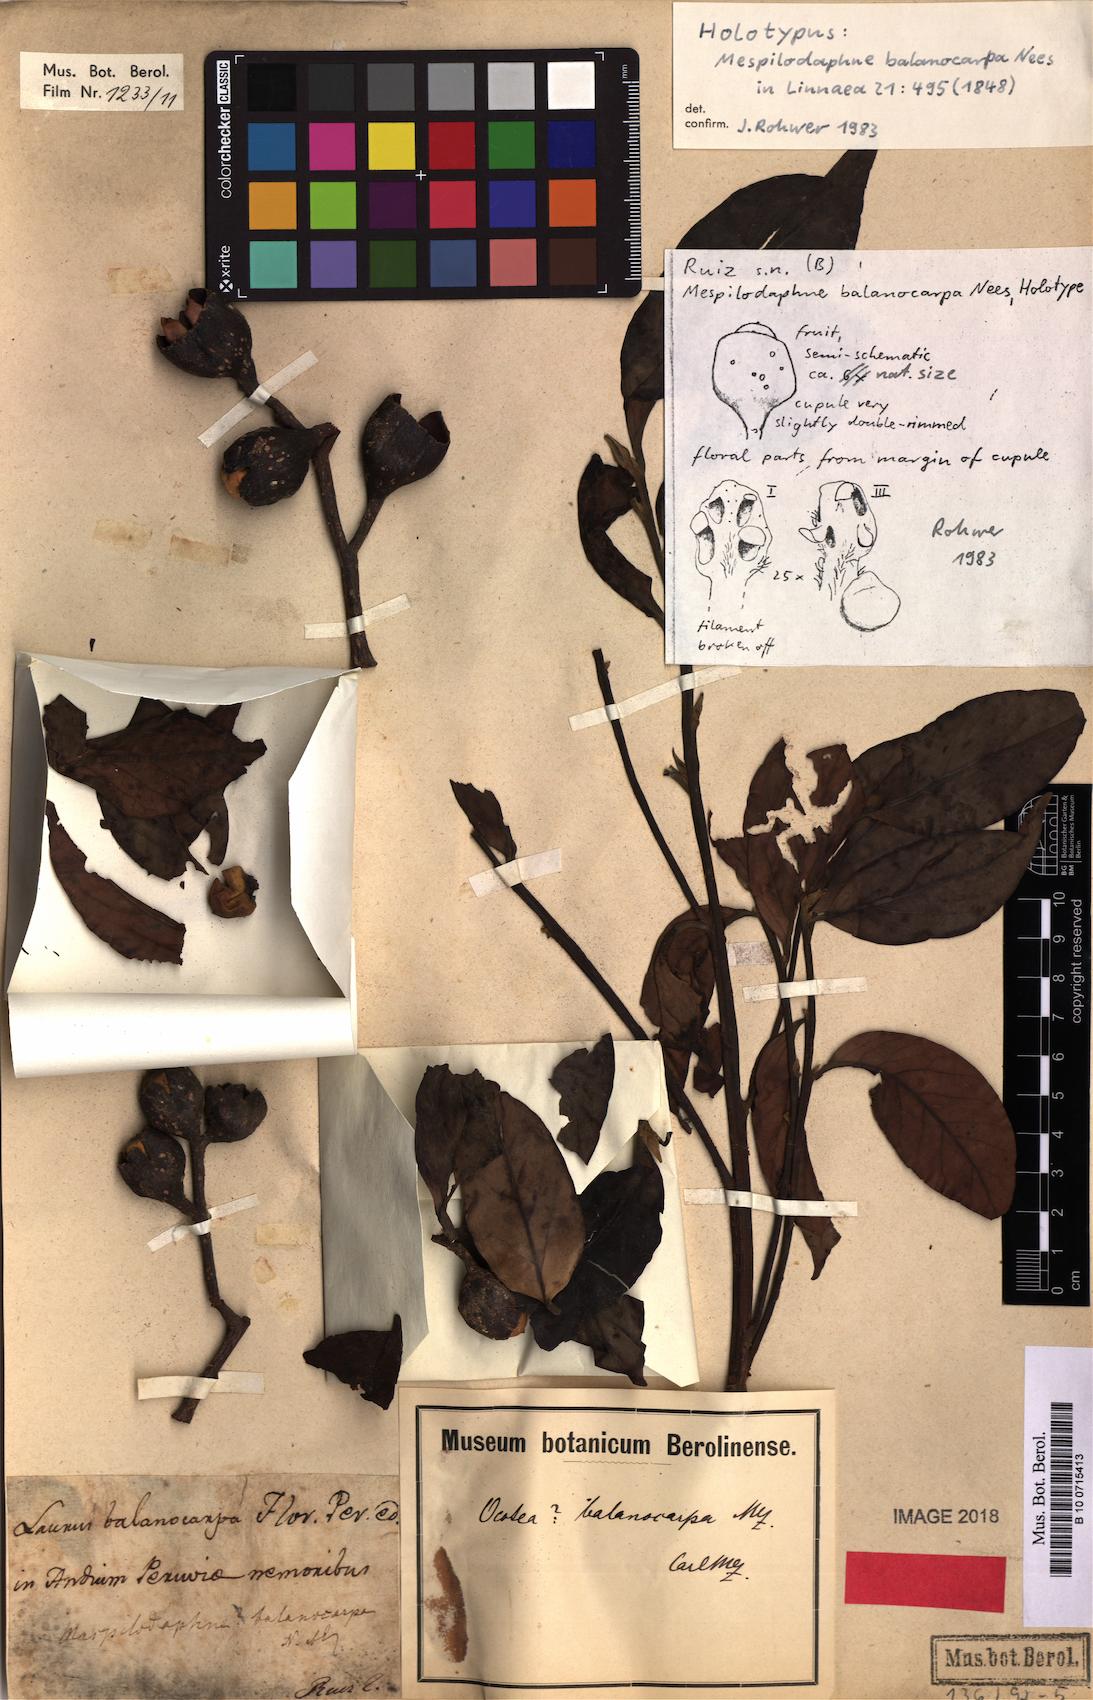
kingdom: Plantae
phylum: Tracheophyta
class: Magnoliopsida
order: Laurales
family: Lauraceae
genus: Mespilodaphne
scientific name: Mespilodaphne balanocarpa
